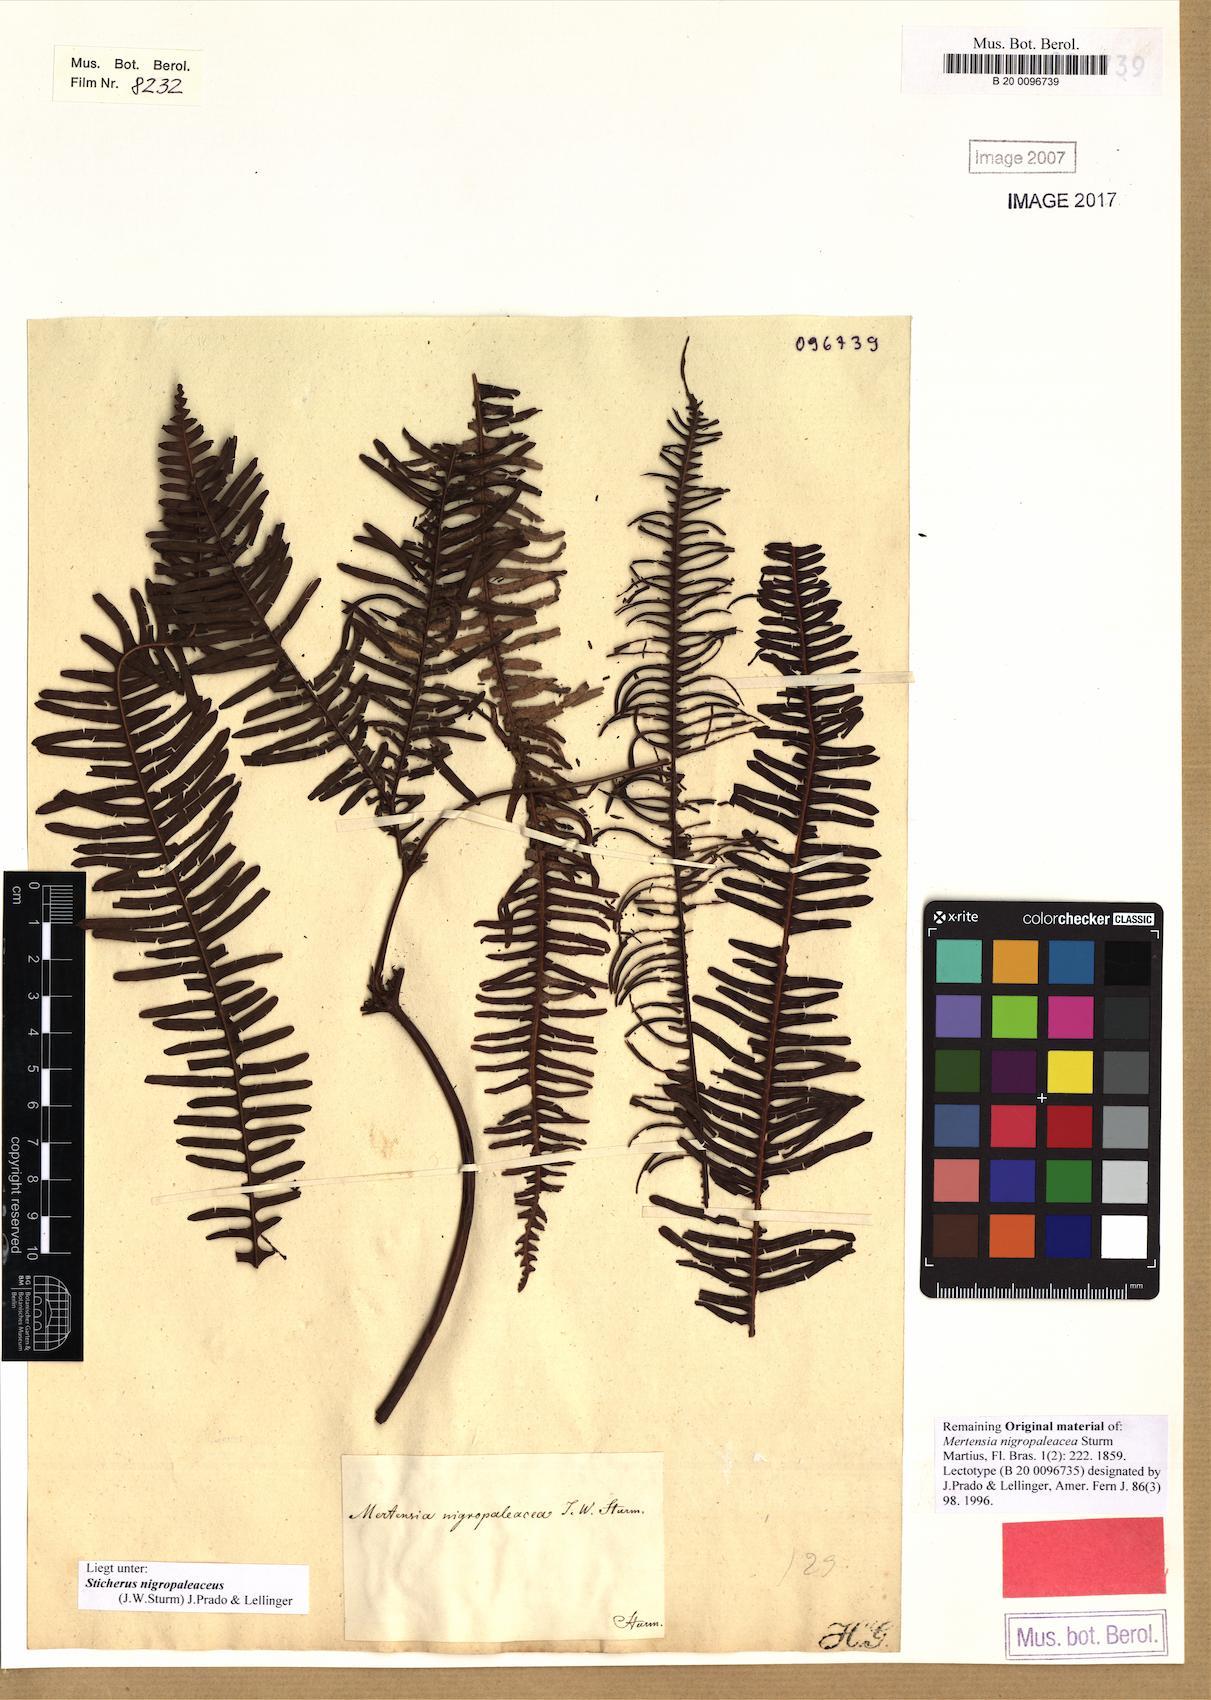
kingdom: Plantae
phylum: Tracheophyta
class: Polypodiopsida
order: Gleicheniales
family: Gleicheniaceae
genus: Sticherus
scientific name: Sticherus nigropaleaceus
